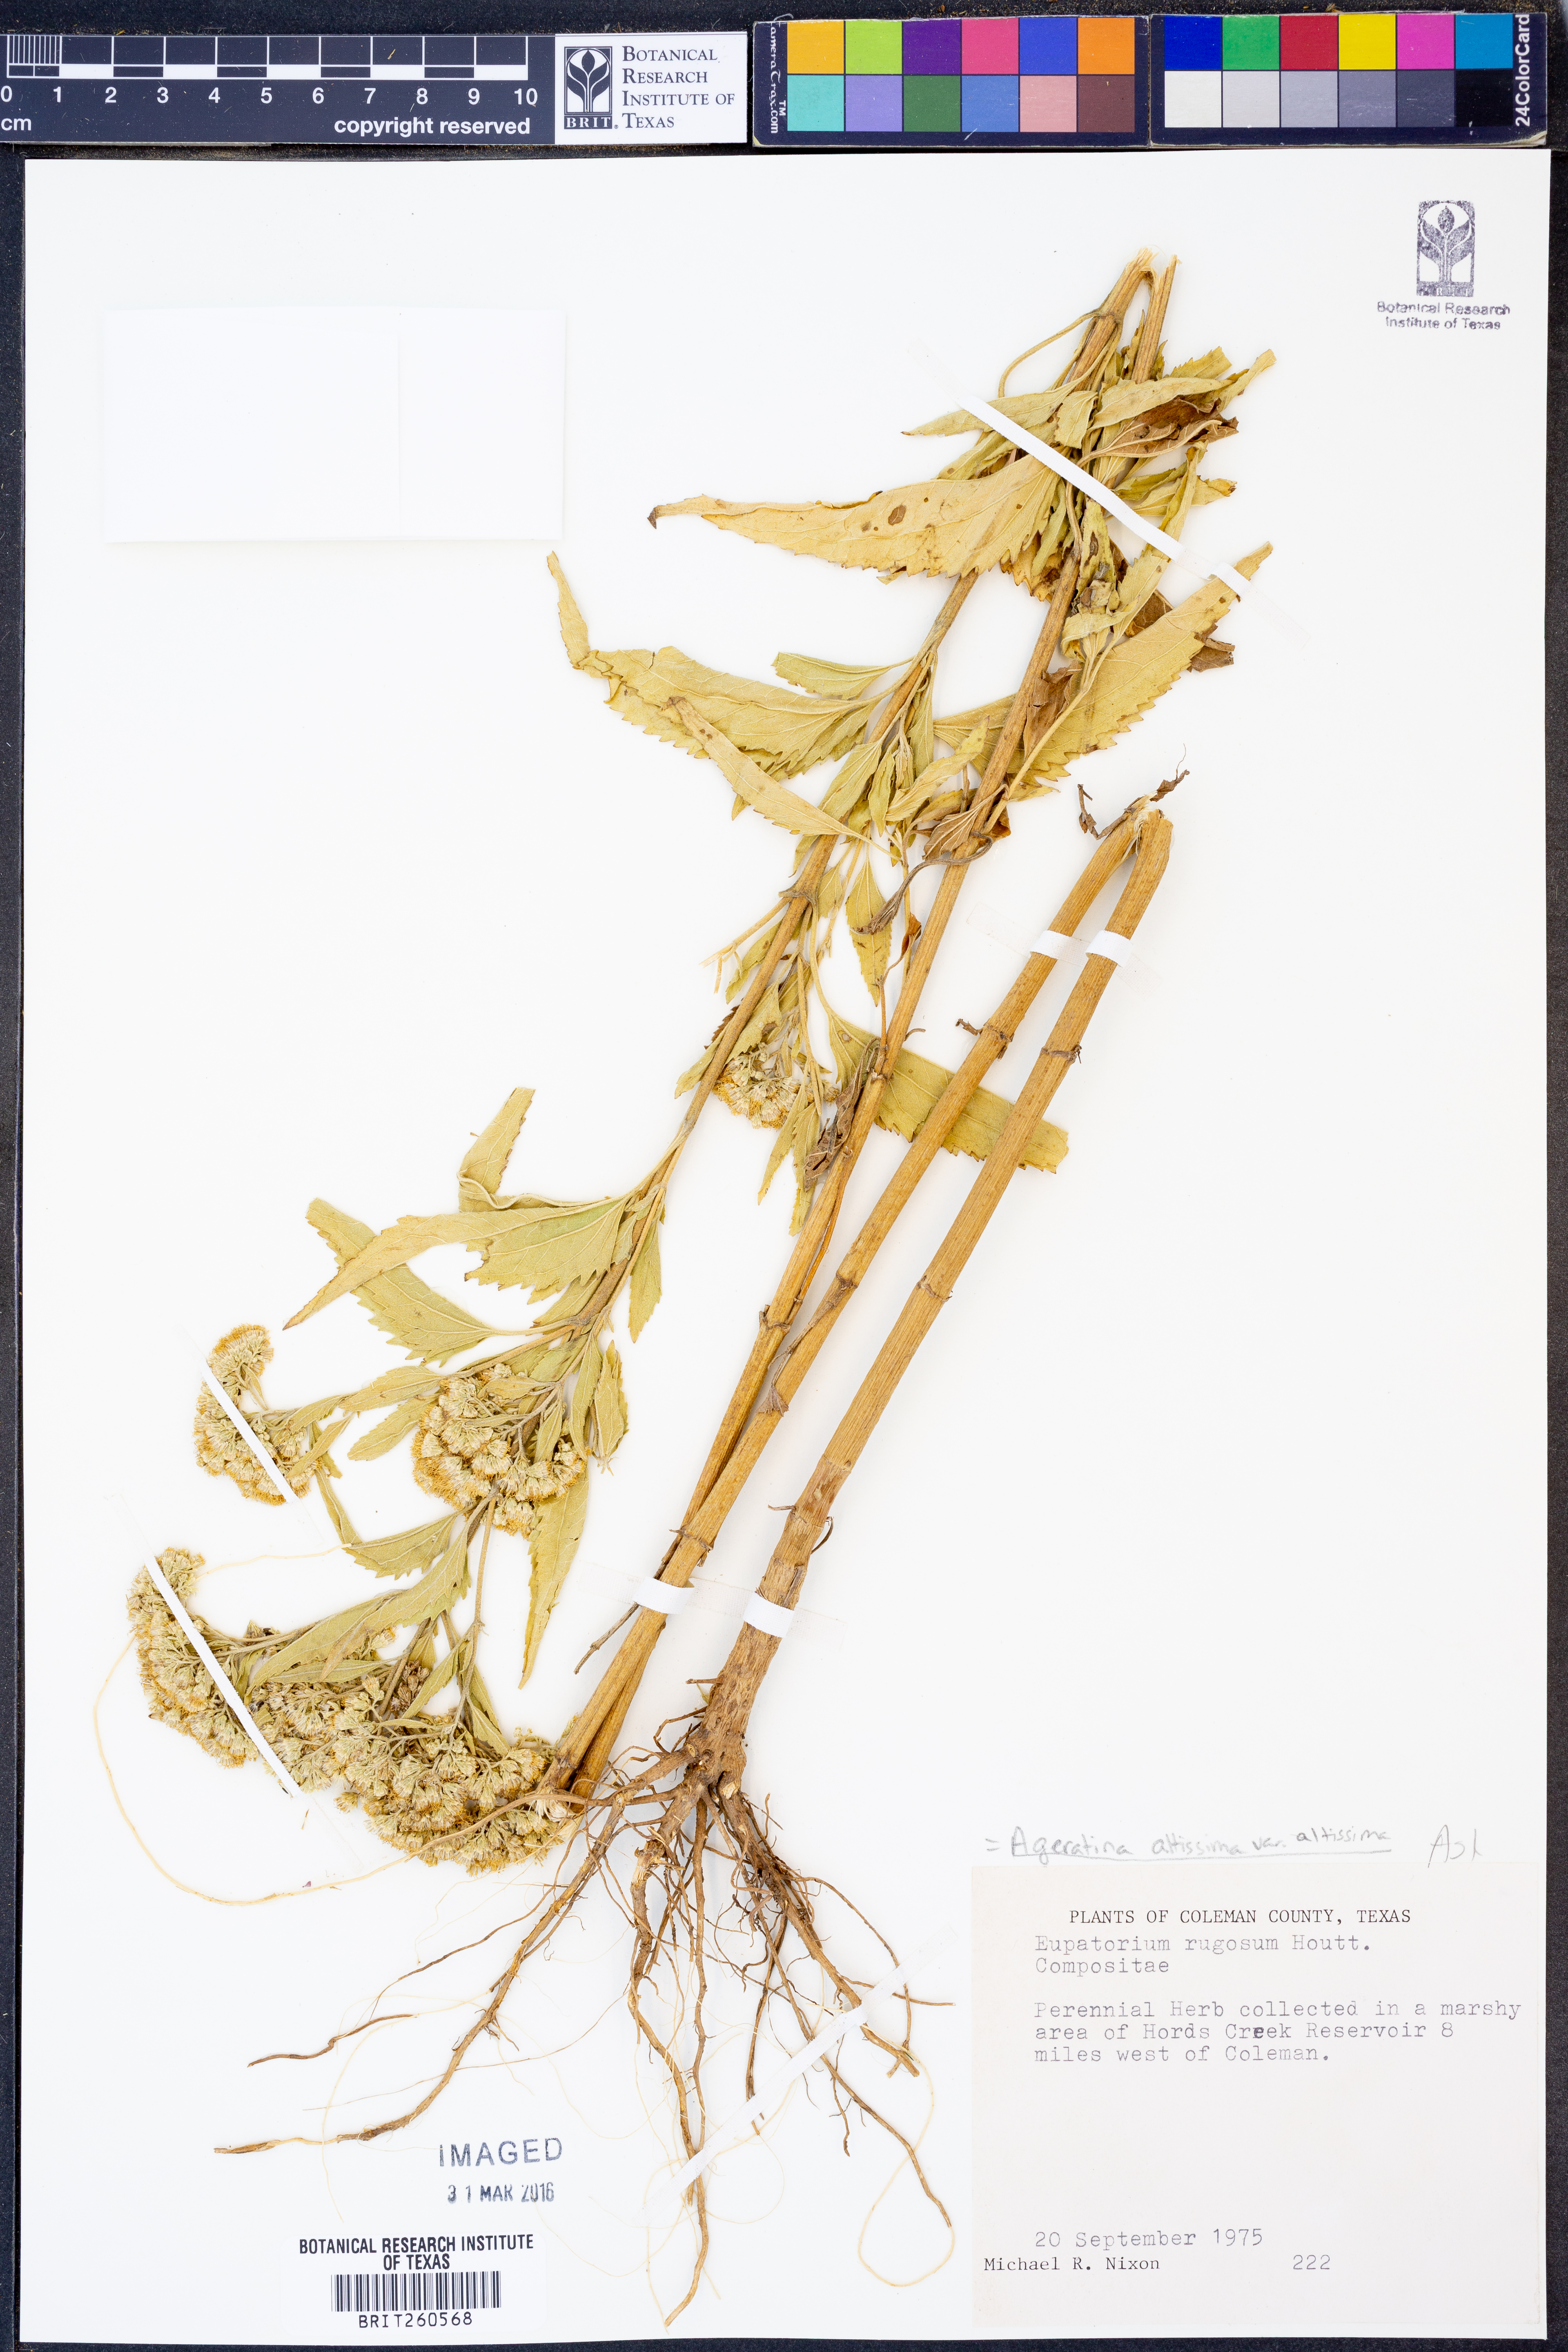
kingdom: Plantae
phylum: Tracheophyta
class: Magnoliopsida
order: Asterales
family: Asteraceae
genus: Ageratina
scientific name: Ageratina altissima
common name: White snakeroot
